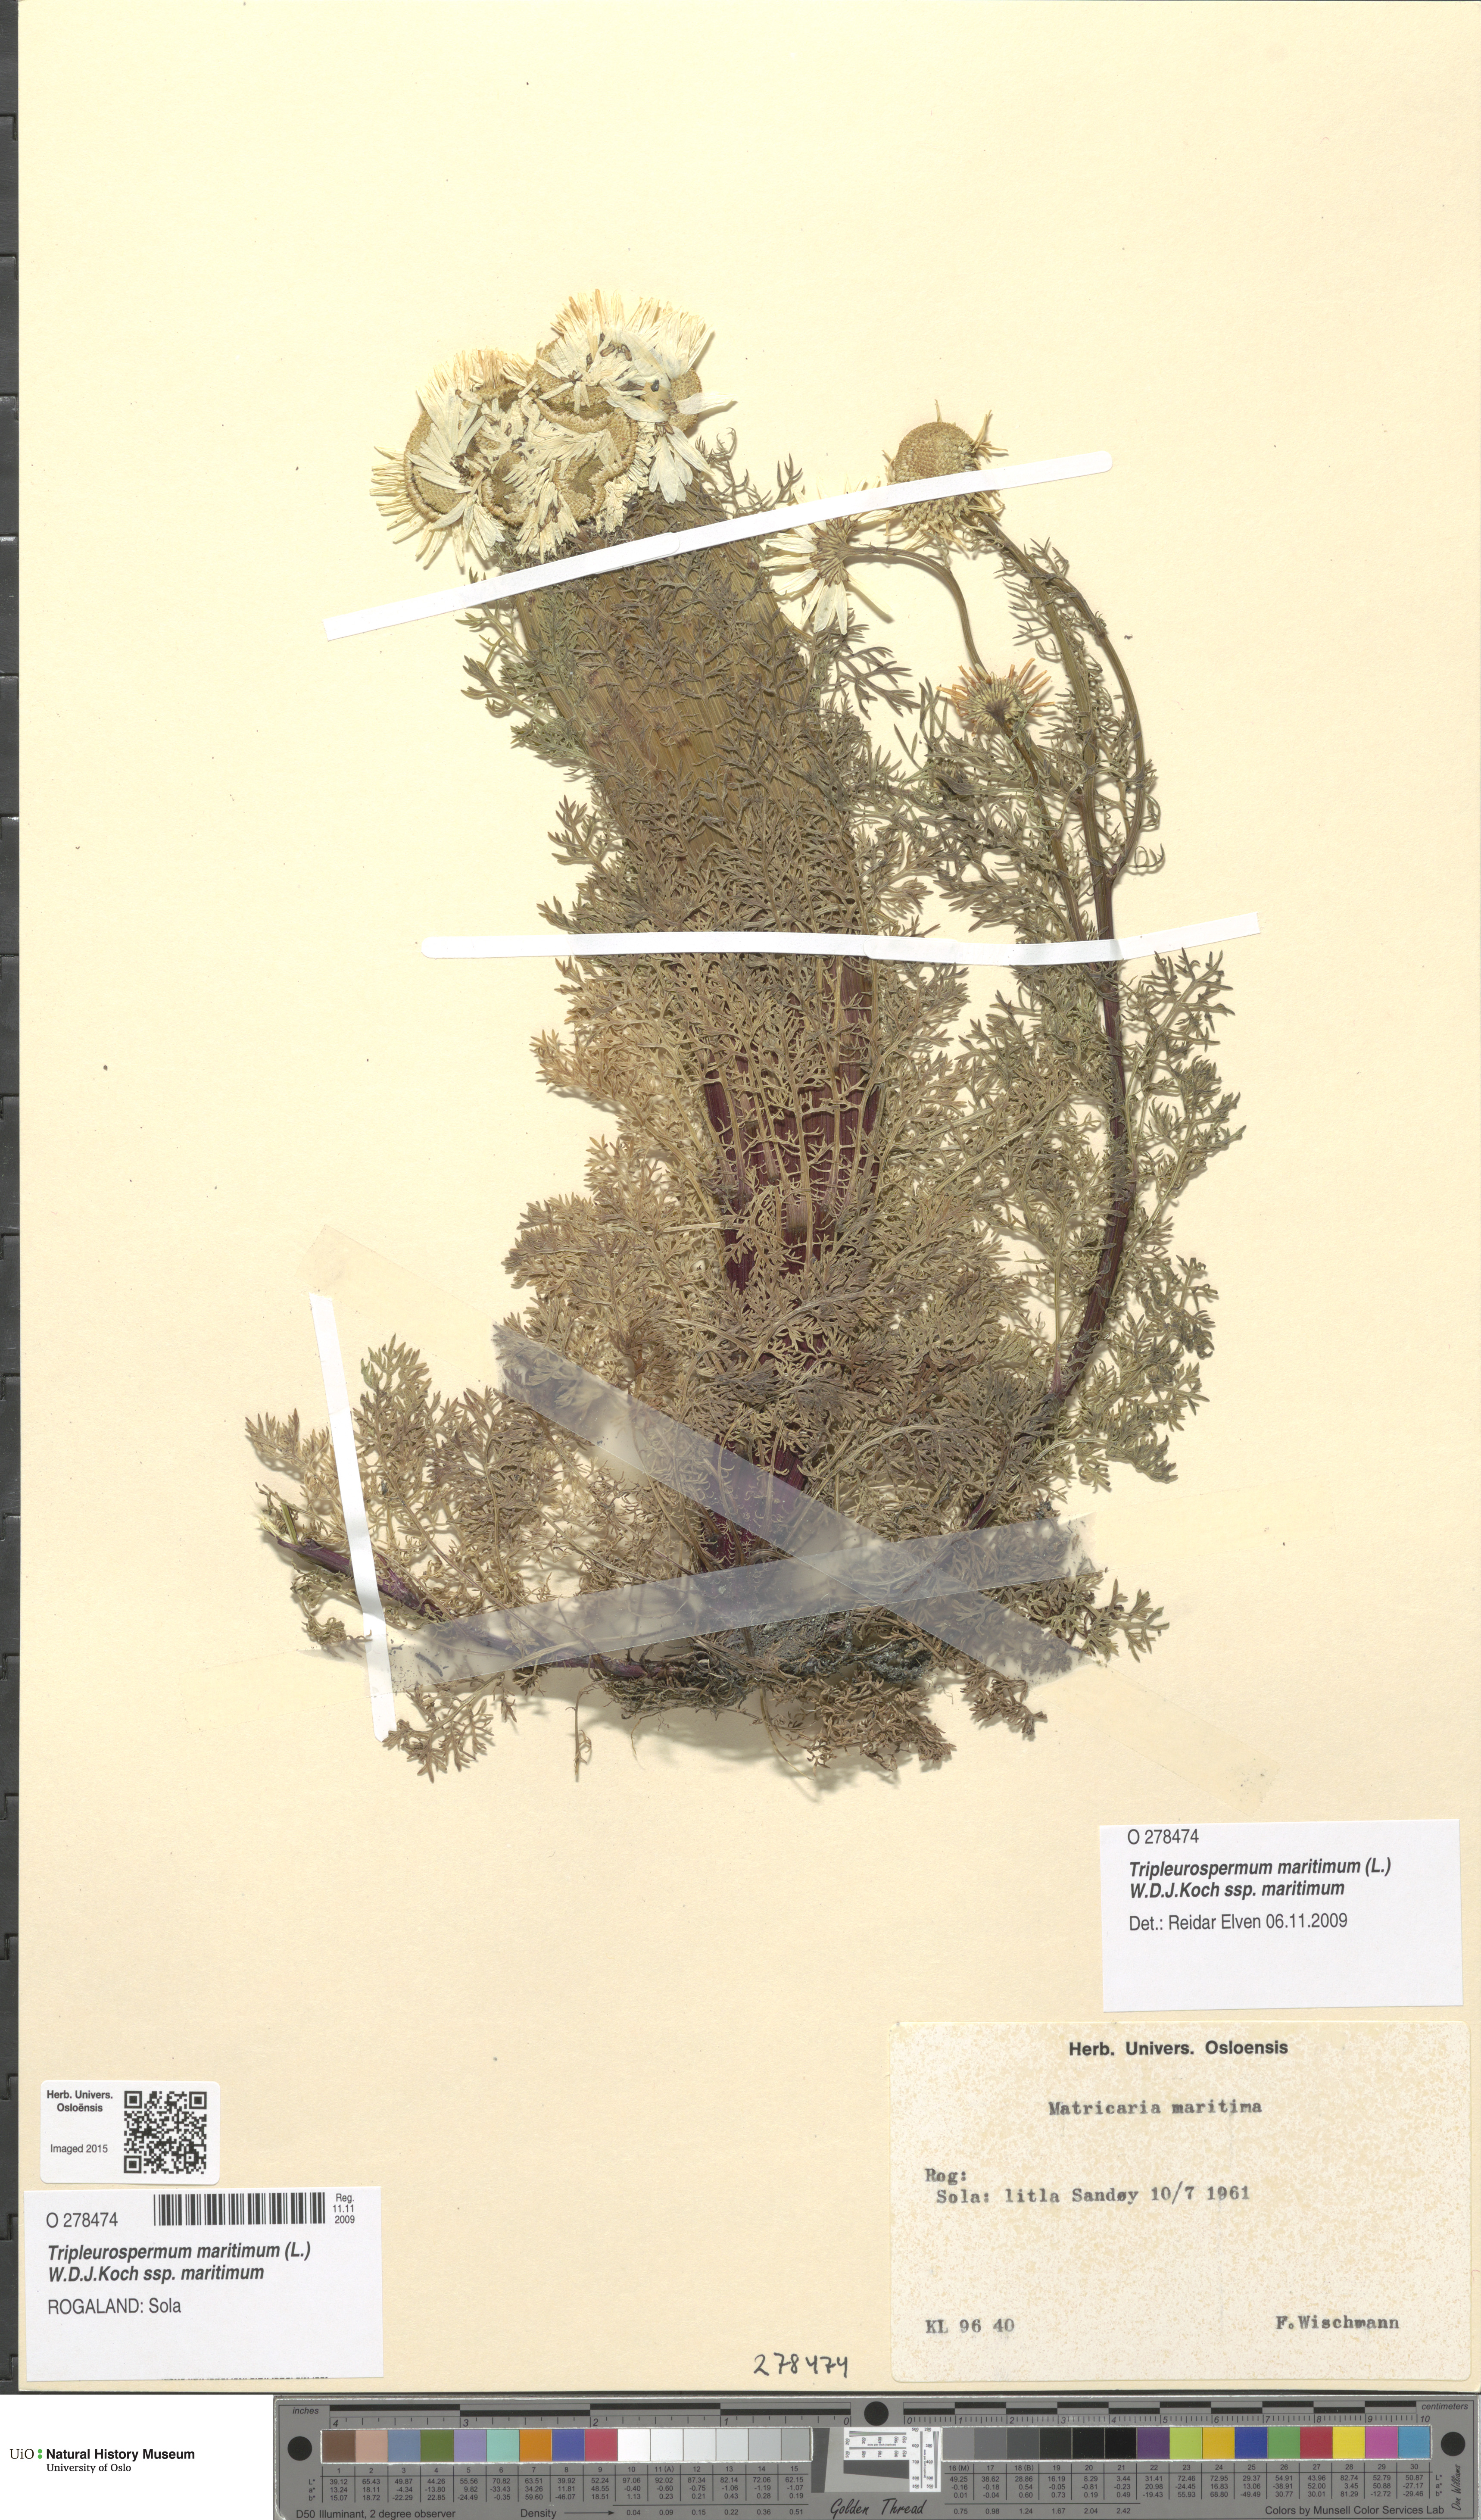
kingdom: Plantae
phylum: Tracheophyta
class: Magnoliopsida
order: Asterales
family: Asteraceae
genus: Tripleurospermum
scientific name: Tripleurospermum maritimum
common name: Sea mayweed
